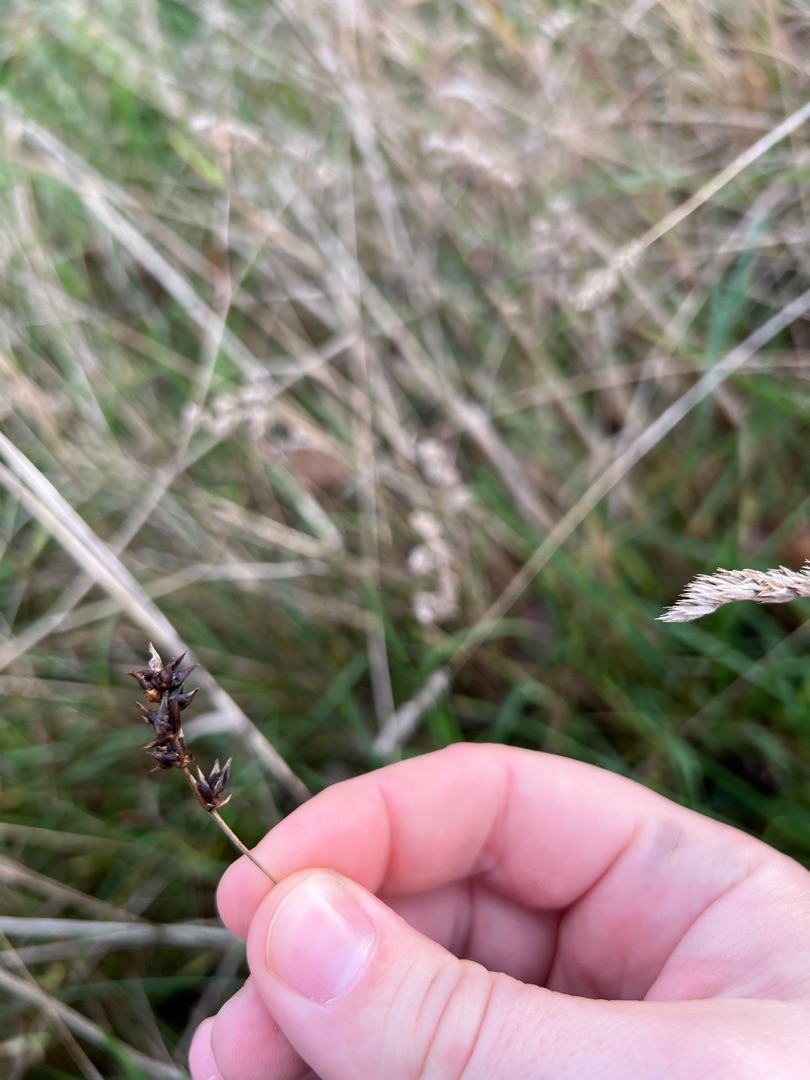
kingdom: Plantae
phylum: Tracheophyta
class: Liliopsida
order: Poales
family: Cyperaceae
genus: Carex
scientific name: Carex spicata
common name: Spidskapslet star
